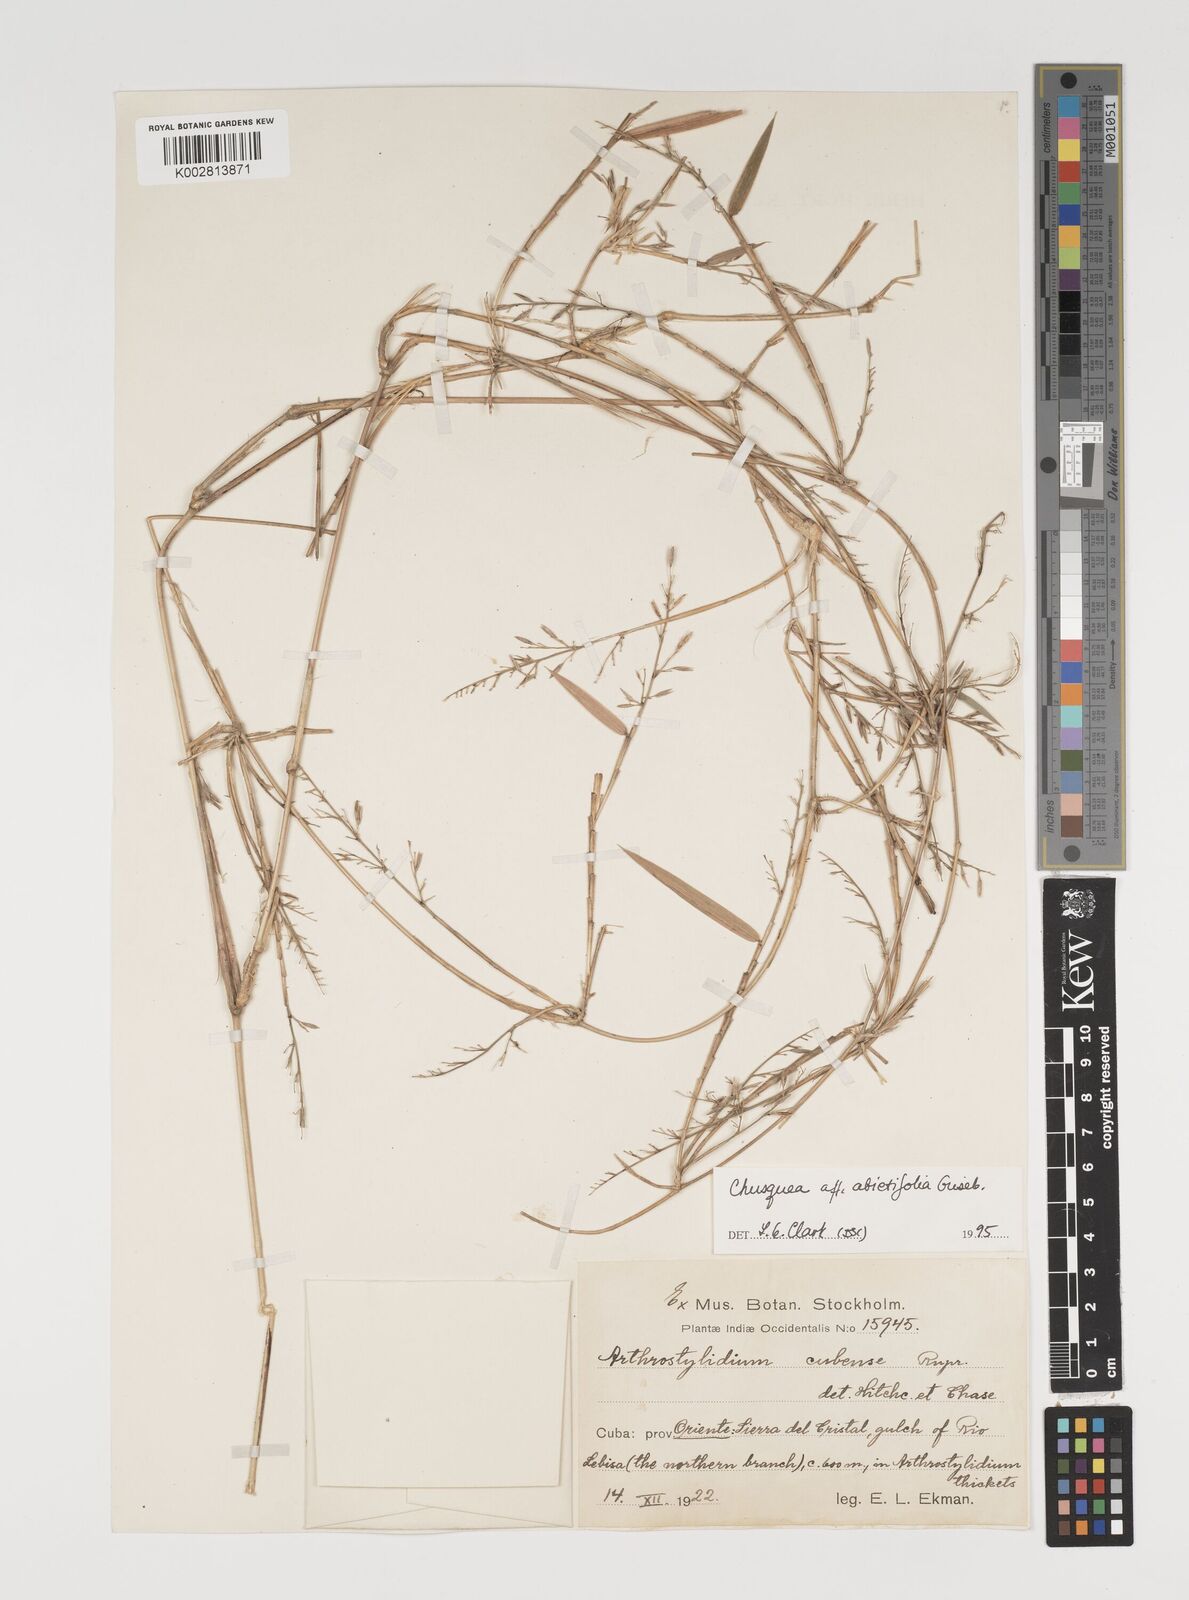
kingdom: Plantae
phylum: Tracheophyta
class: Liliopsida
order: Poales
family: Poaceae
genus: Chusquea
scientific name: Chusquea abietifolia
